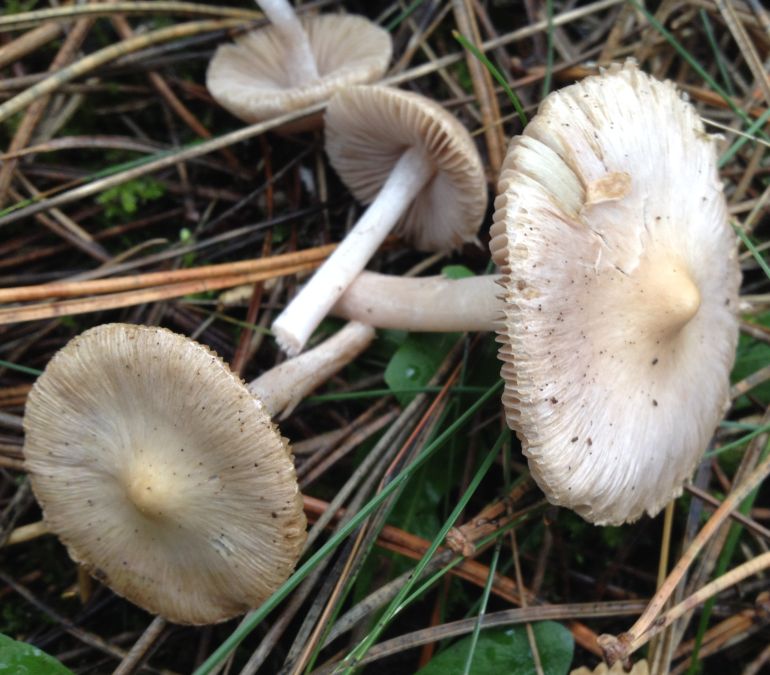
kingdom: Fungi
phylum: Basidiomycota
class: Agaricomycetes
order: Agaricales
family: Inocybaceae
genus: Inocybe
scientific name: Inocybe geophylla
